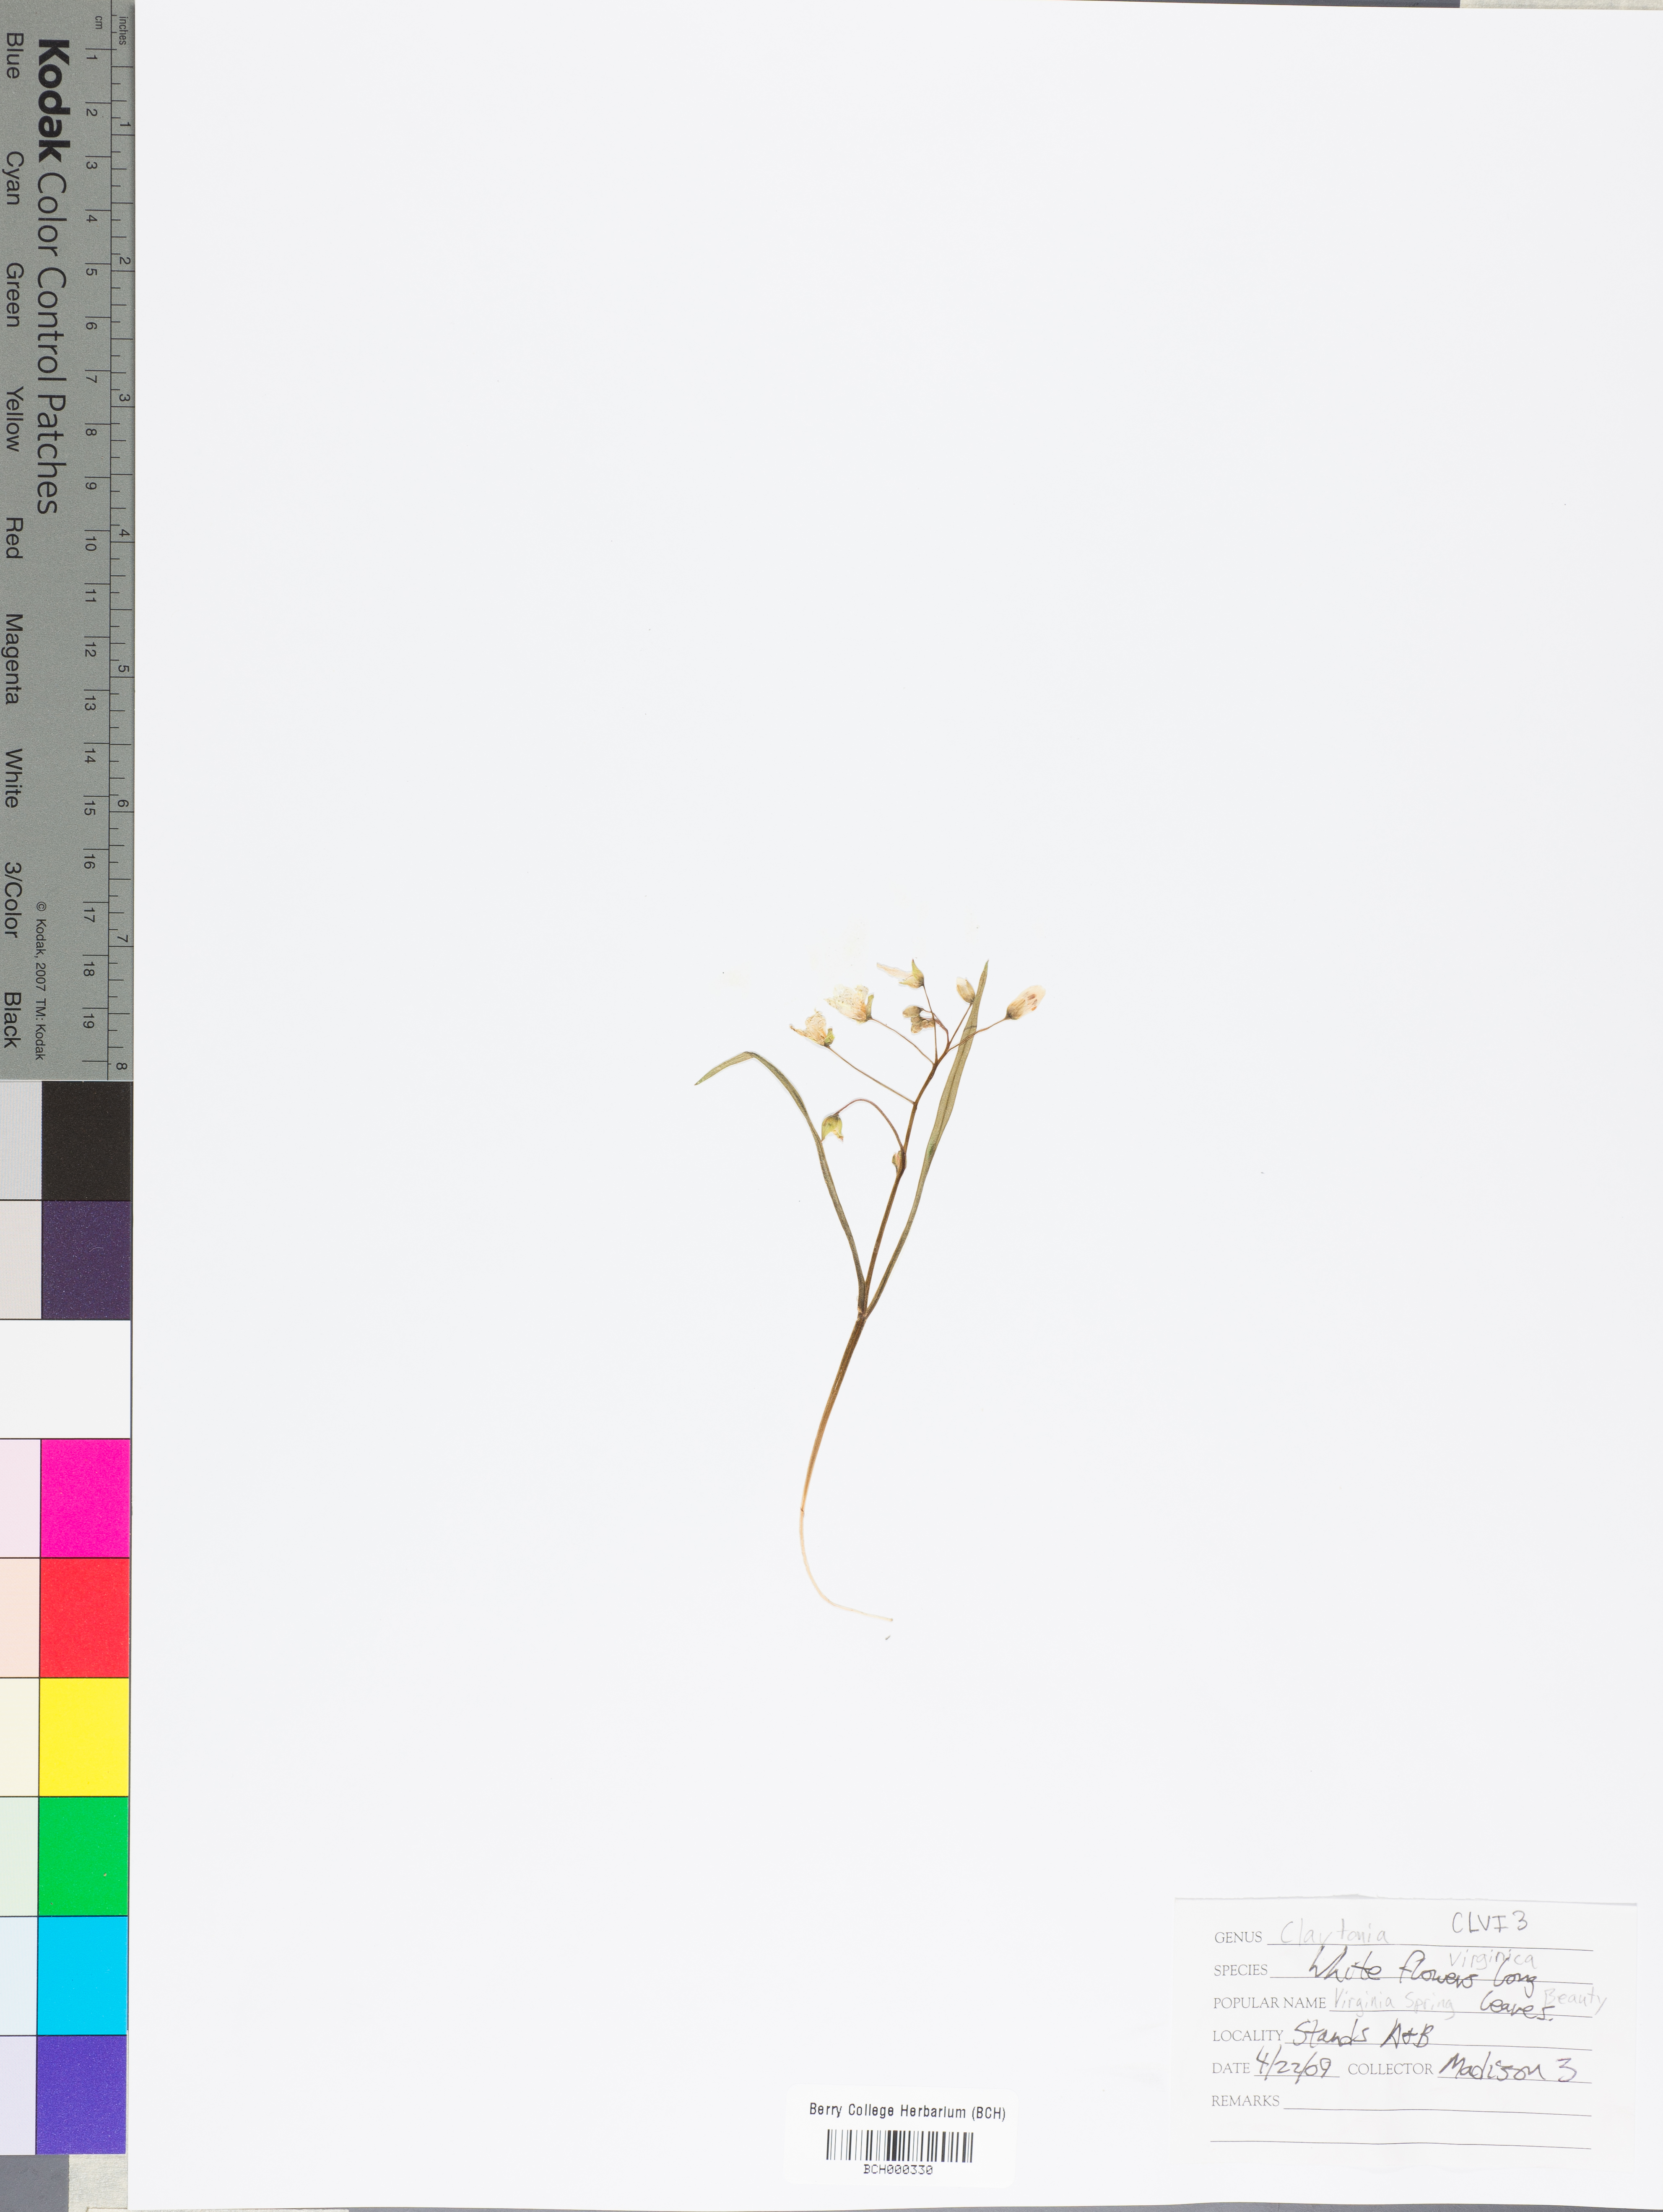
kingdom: Plantae
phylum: Tracheophyta
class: Magnoliopsida
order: Caryophyllales
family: Montiaceae
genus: Claytonia
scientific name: Claytonia virginica
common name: Virginia springbeauty
